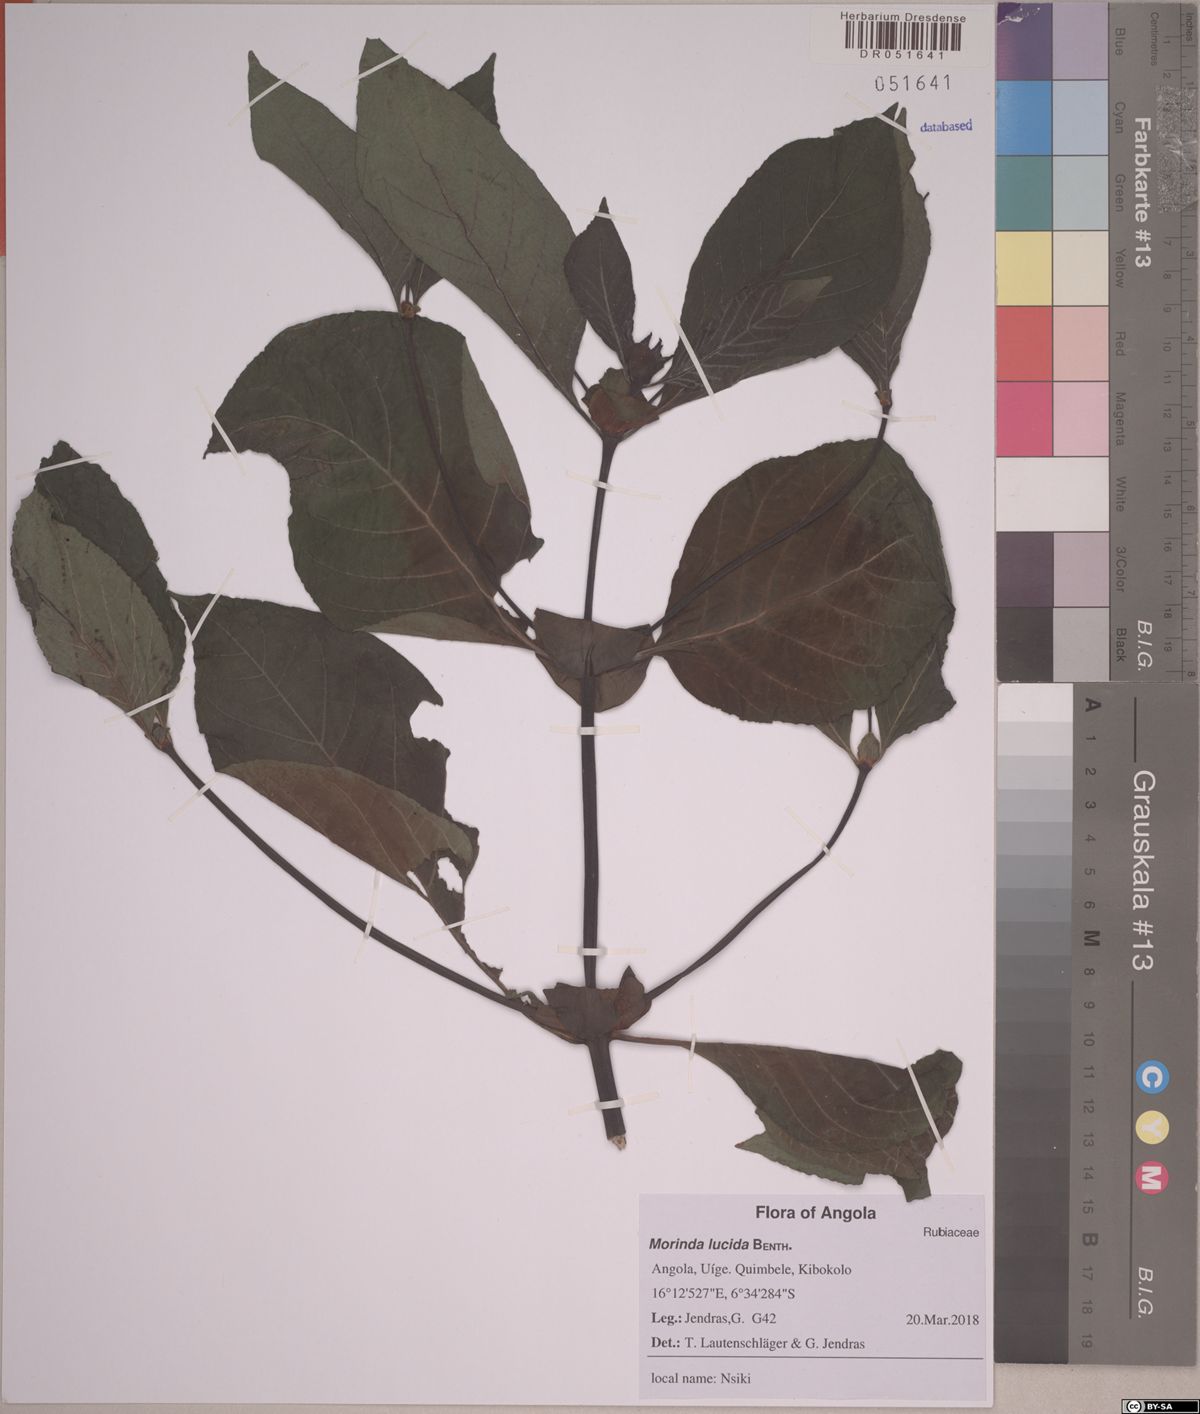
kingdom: Plantae
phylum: Tracheophyta
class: Magnoliopsida
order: Gentianales
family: Rubiaceae
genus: Morinda
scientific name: Morinda lucida
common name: Brimstonetree
